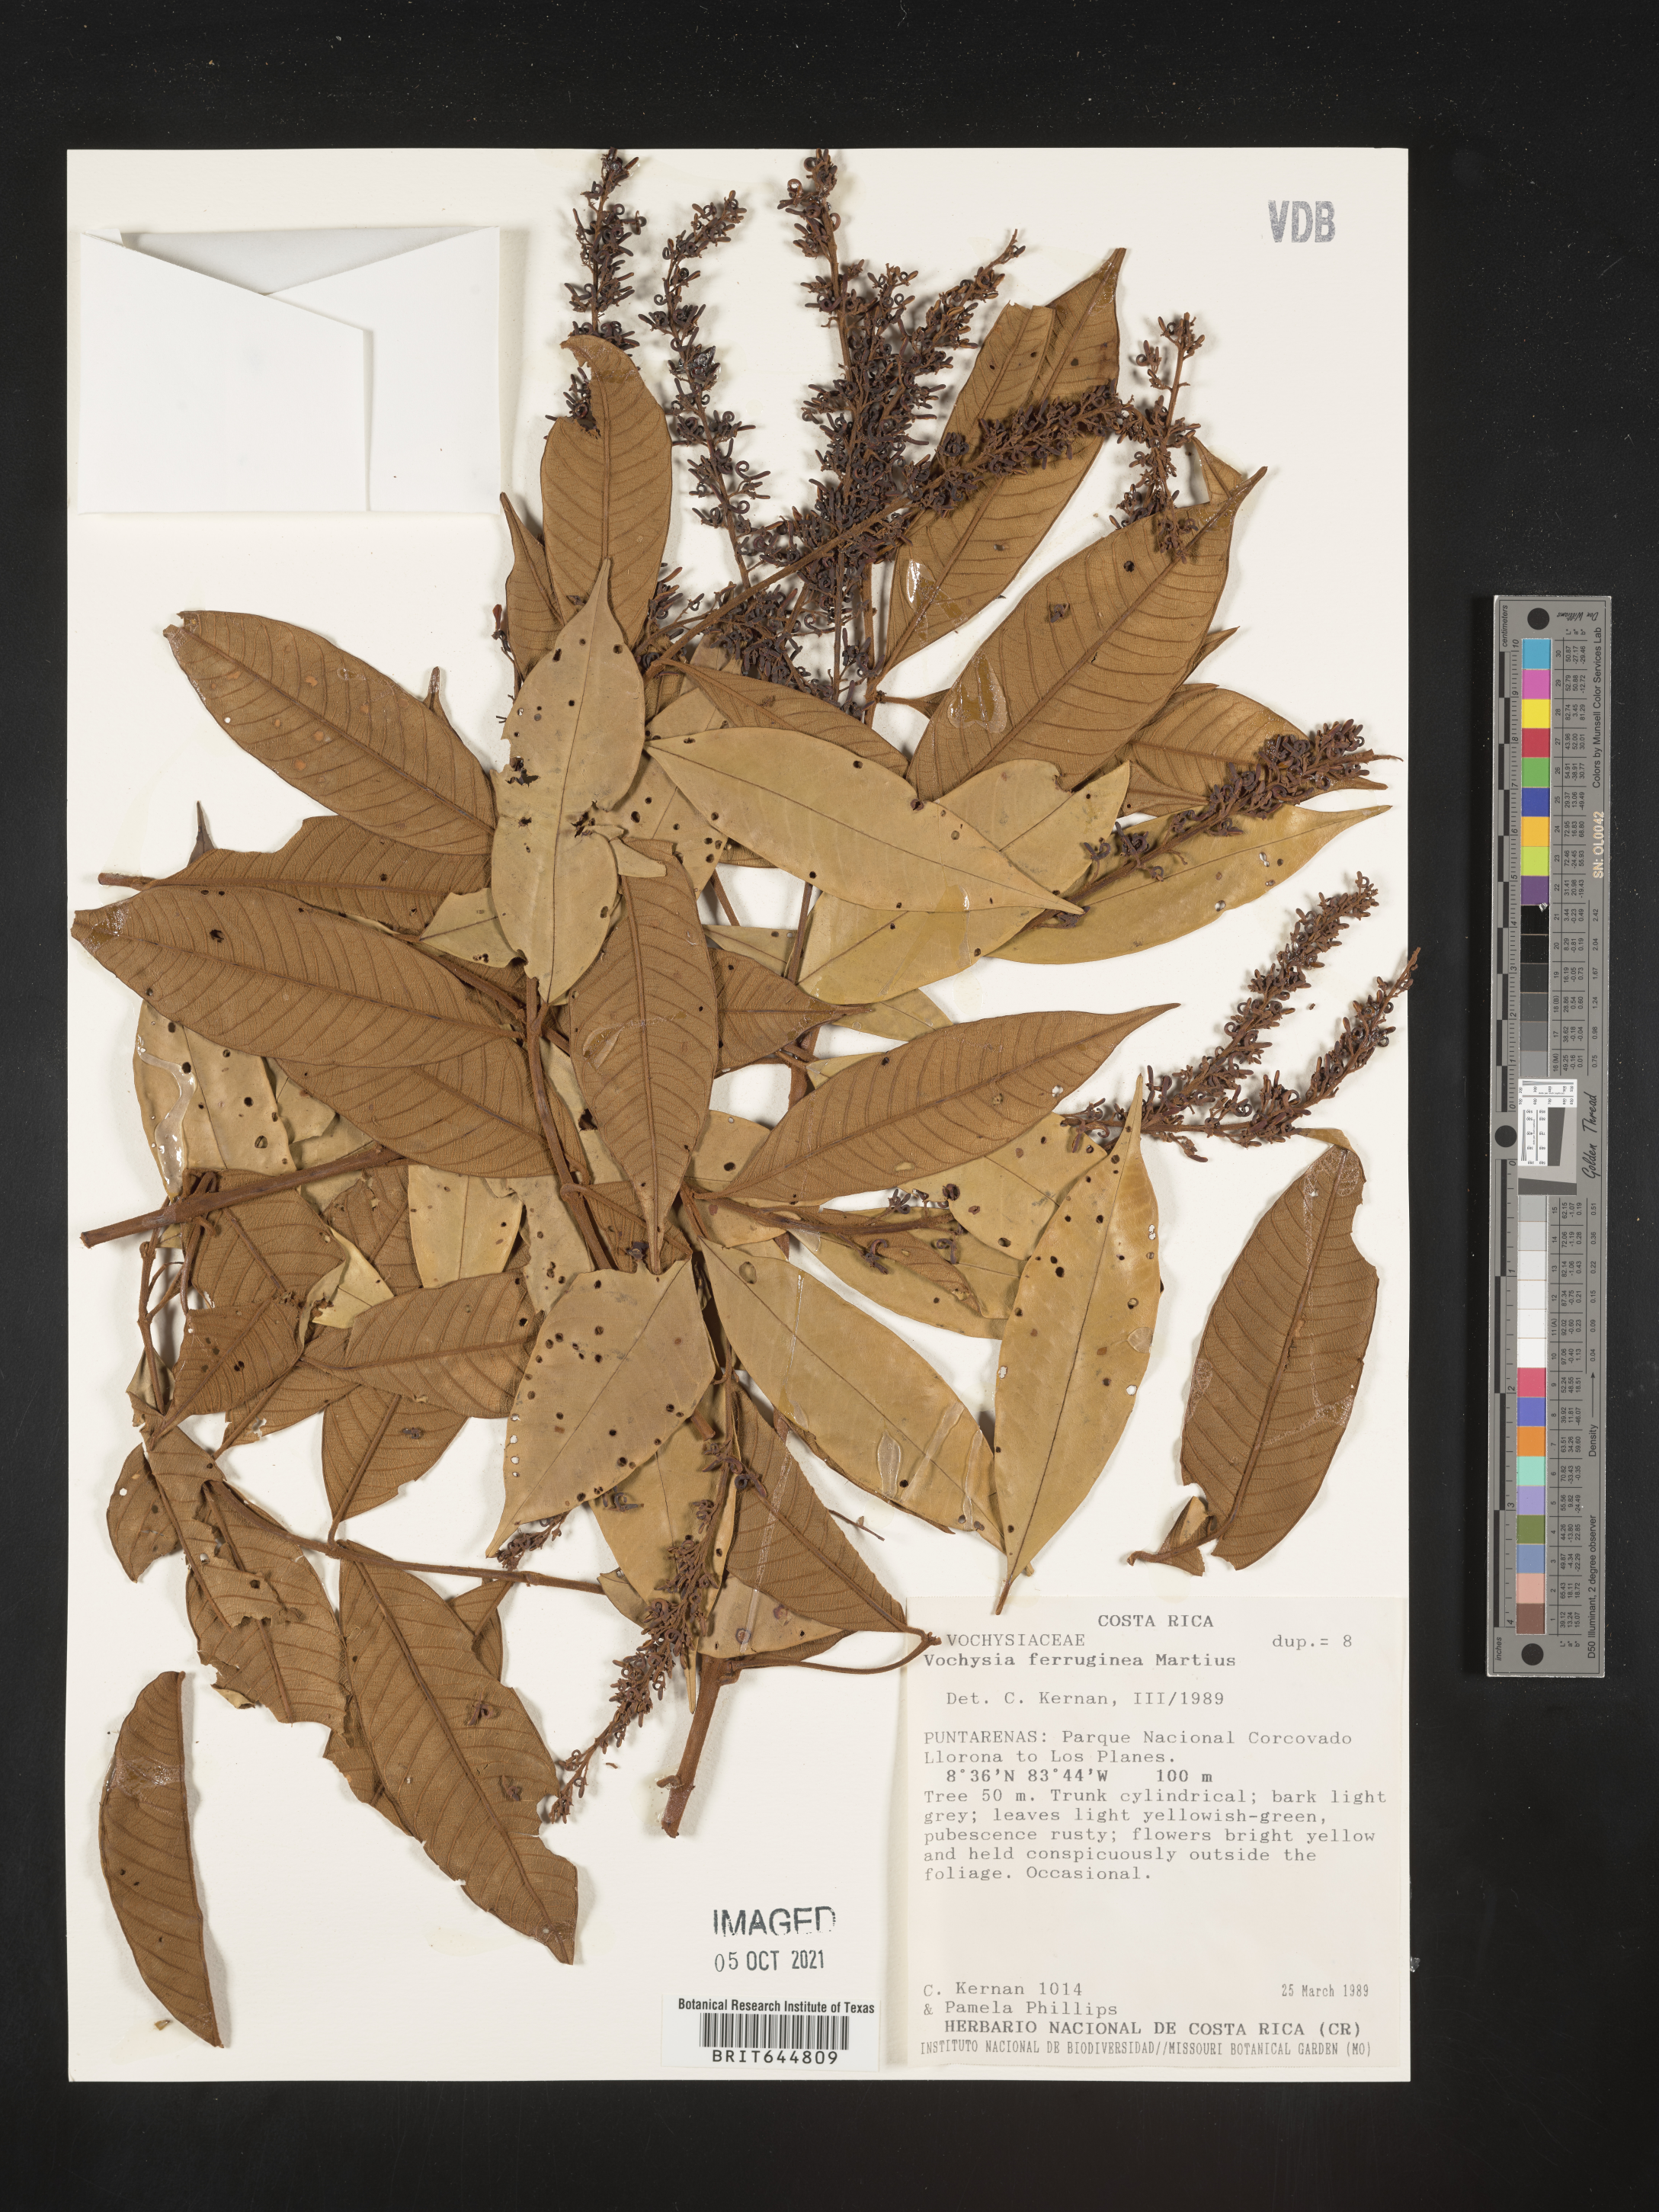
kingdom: Plantae
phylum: Tracheophyta
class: Magnoliopsida
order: Myrtales
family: Vochysiaceae
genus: Vochysia
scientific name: Vochysia
